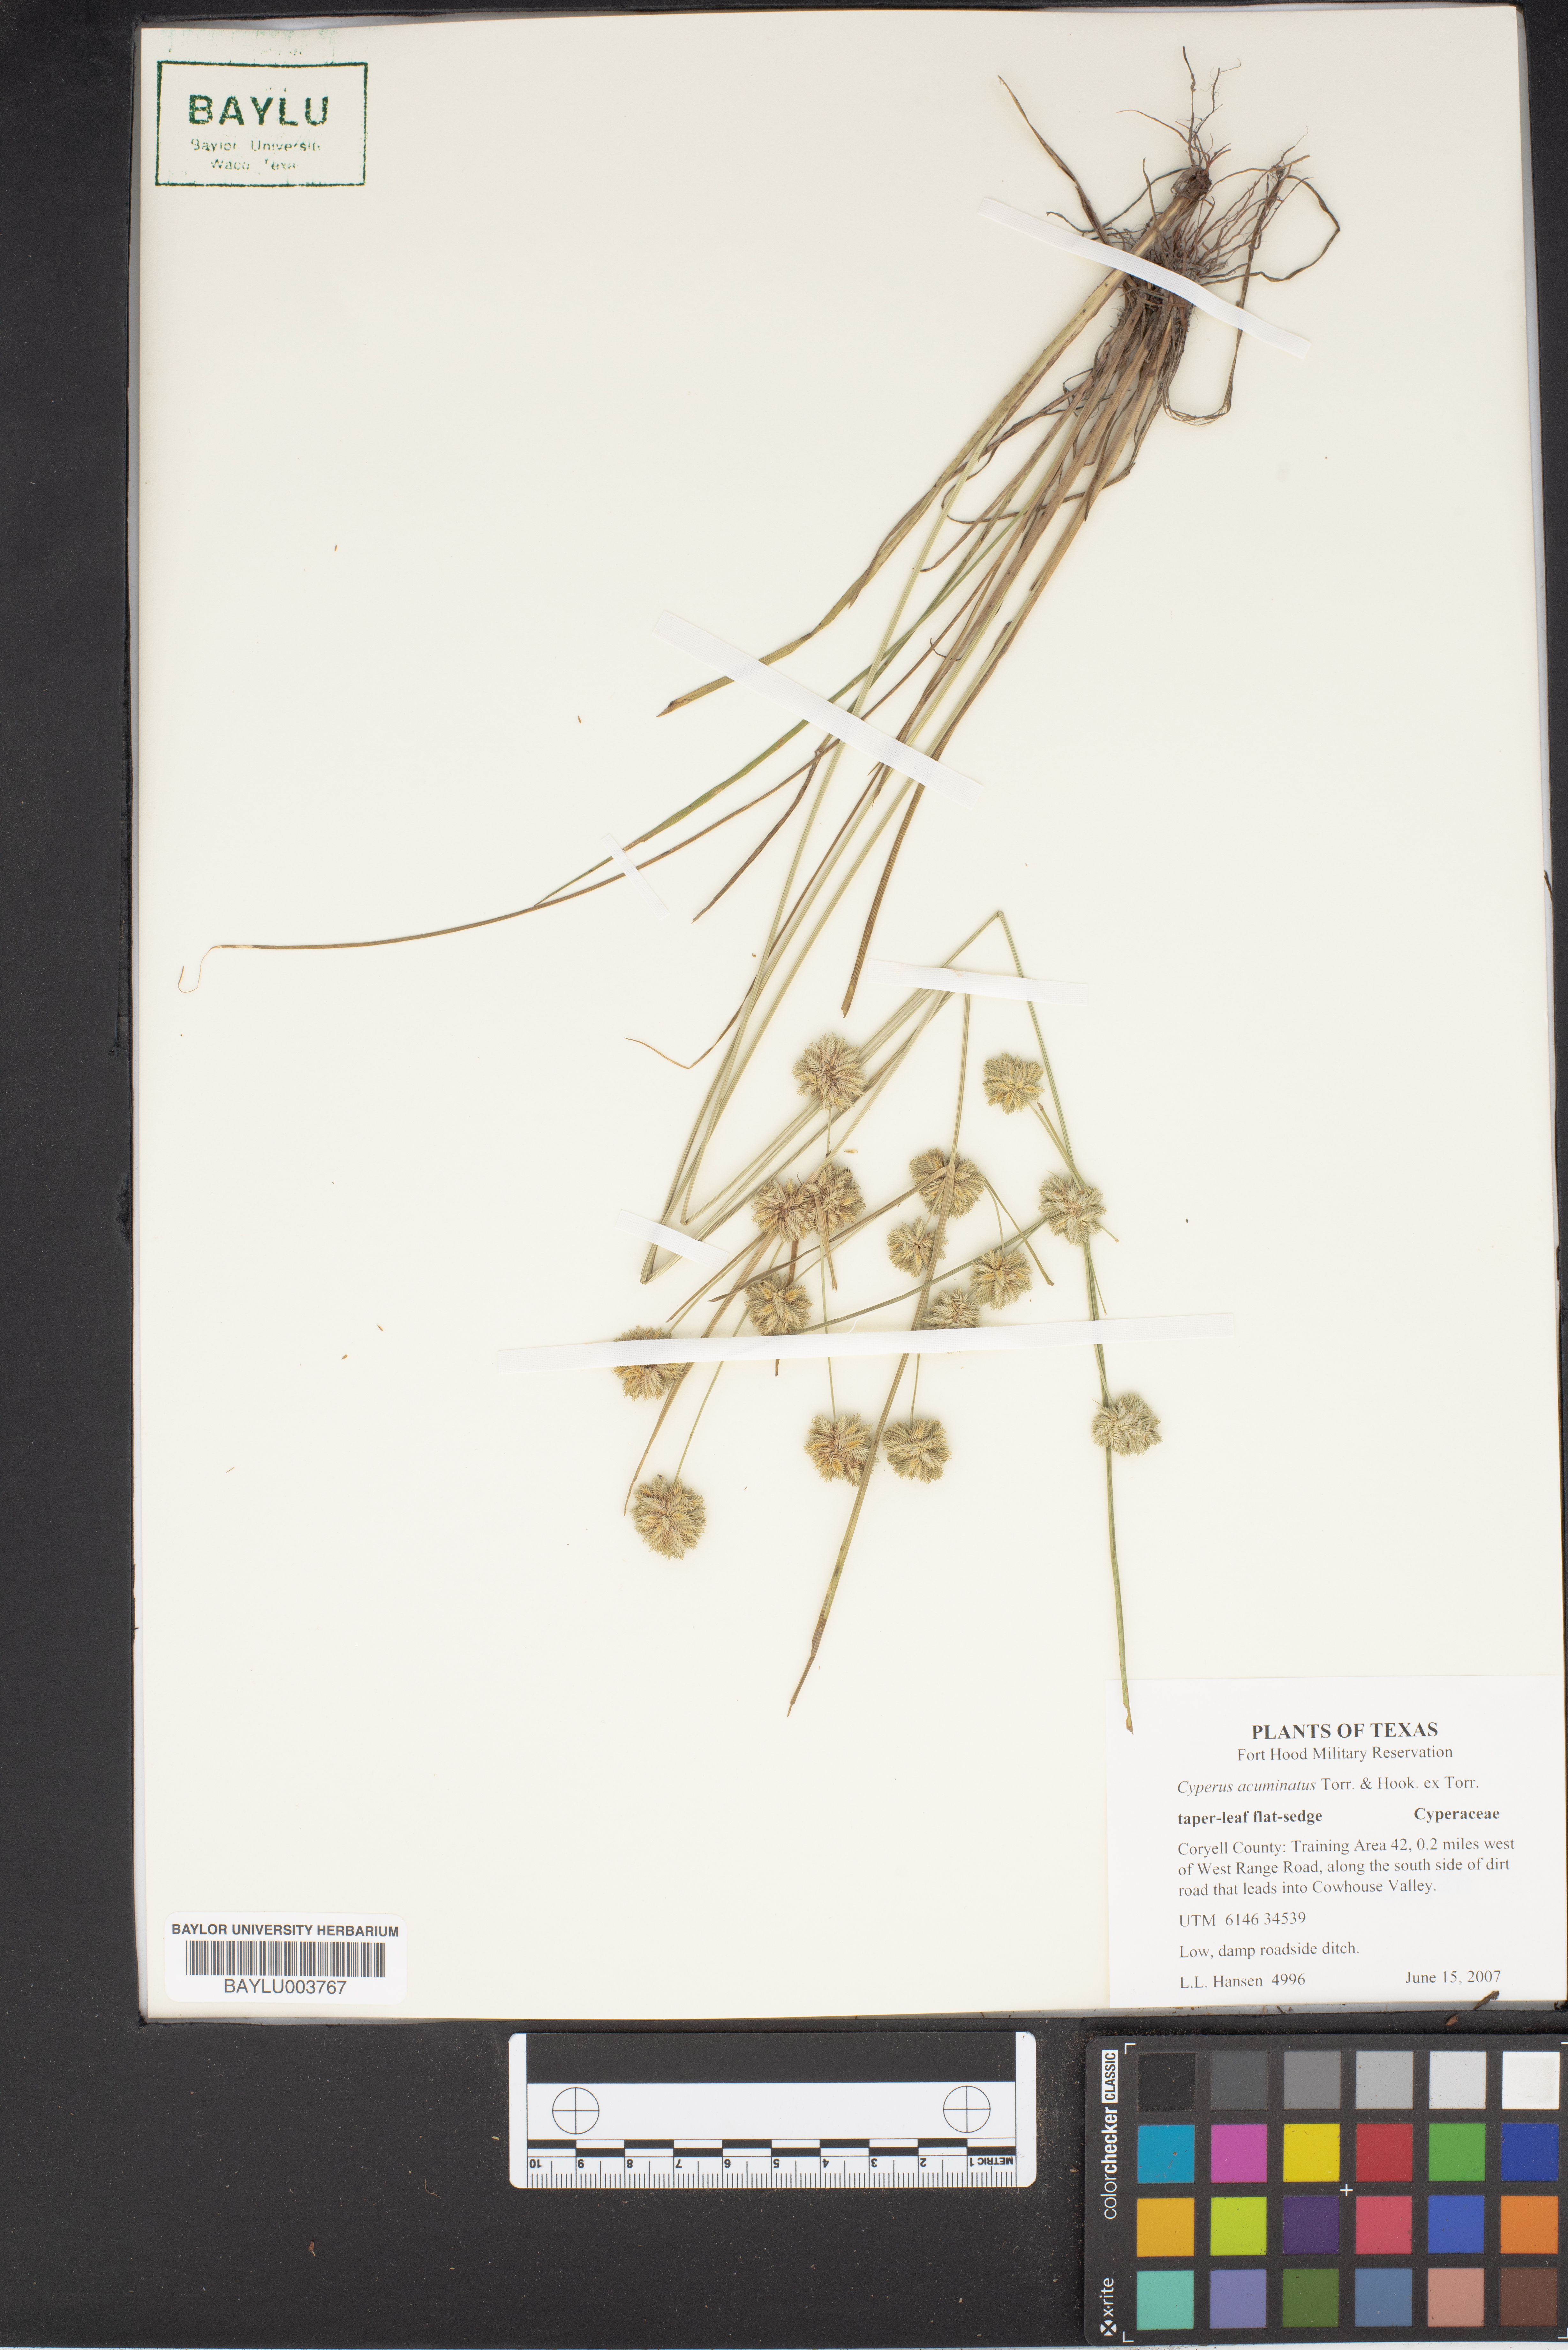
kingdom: Plantae
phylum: Tracheophyta
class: Liliopsida
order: Poales
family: Cyperaceae
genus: Cyperus
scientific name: Cyperus acuminatus
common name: Short-pointed cyperus
